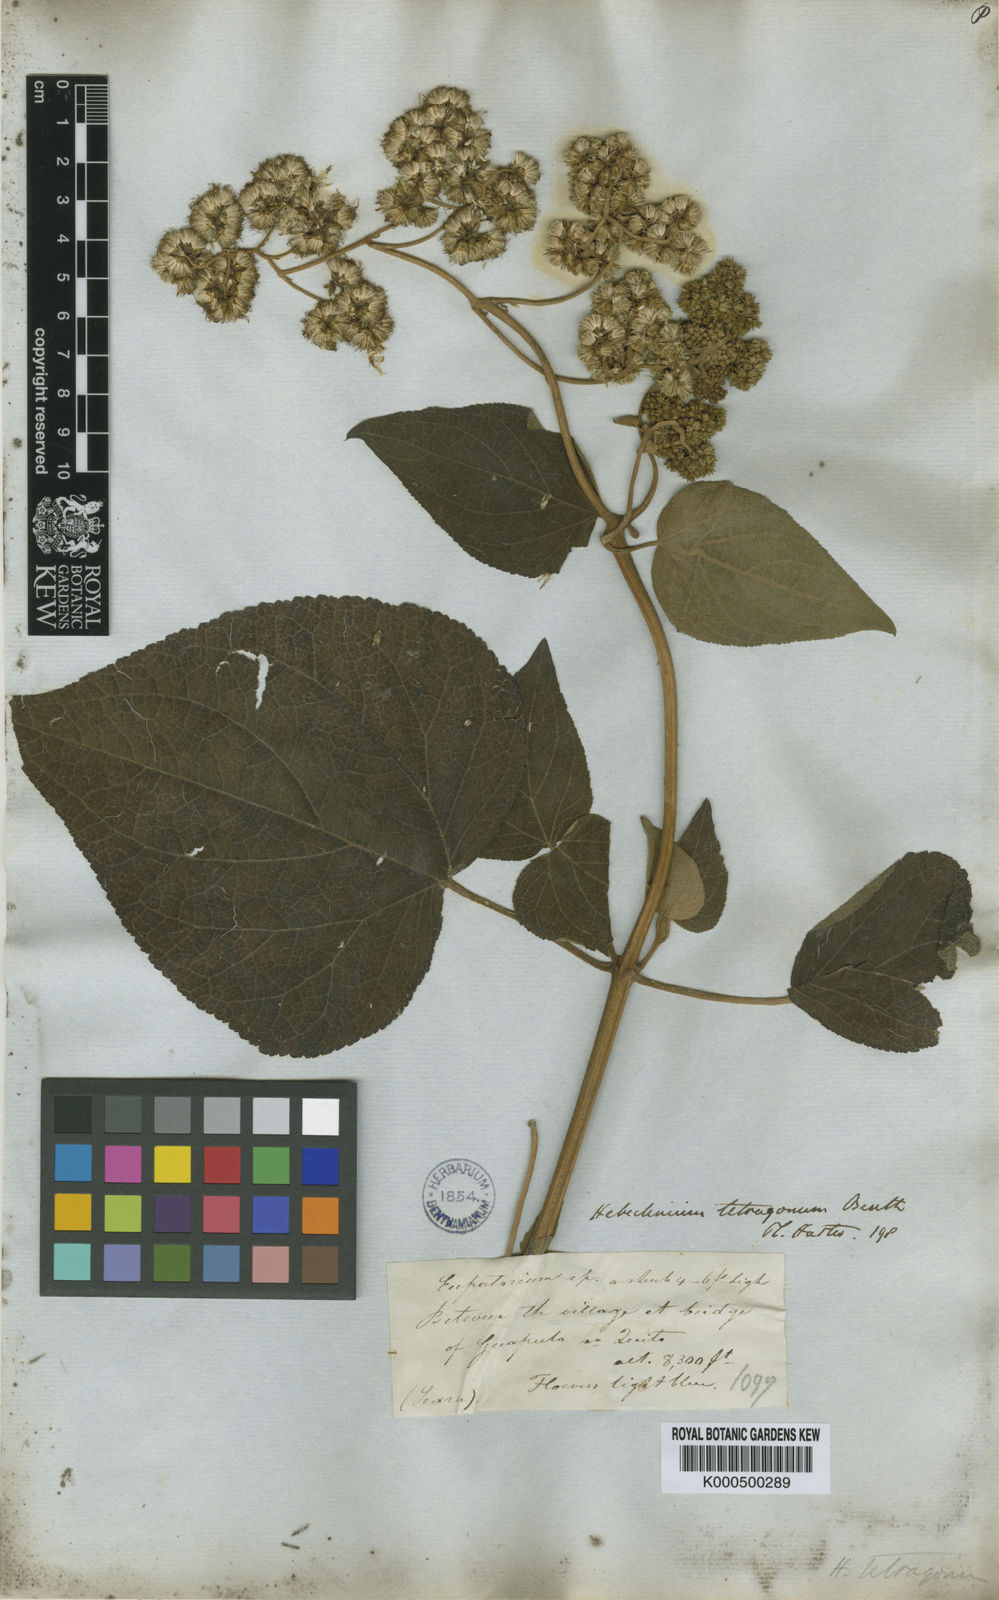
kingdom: Plantae
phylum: Tracheophyta
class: Magnoliopsida
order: Asterales
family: Asteraceae
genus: Ageratina
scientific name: Ageratina rubricaulis
